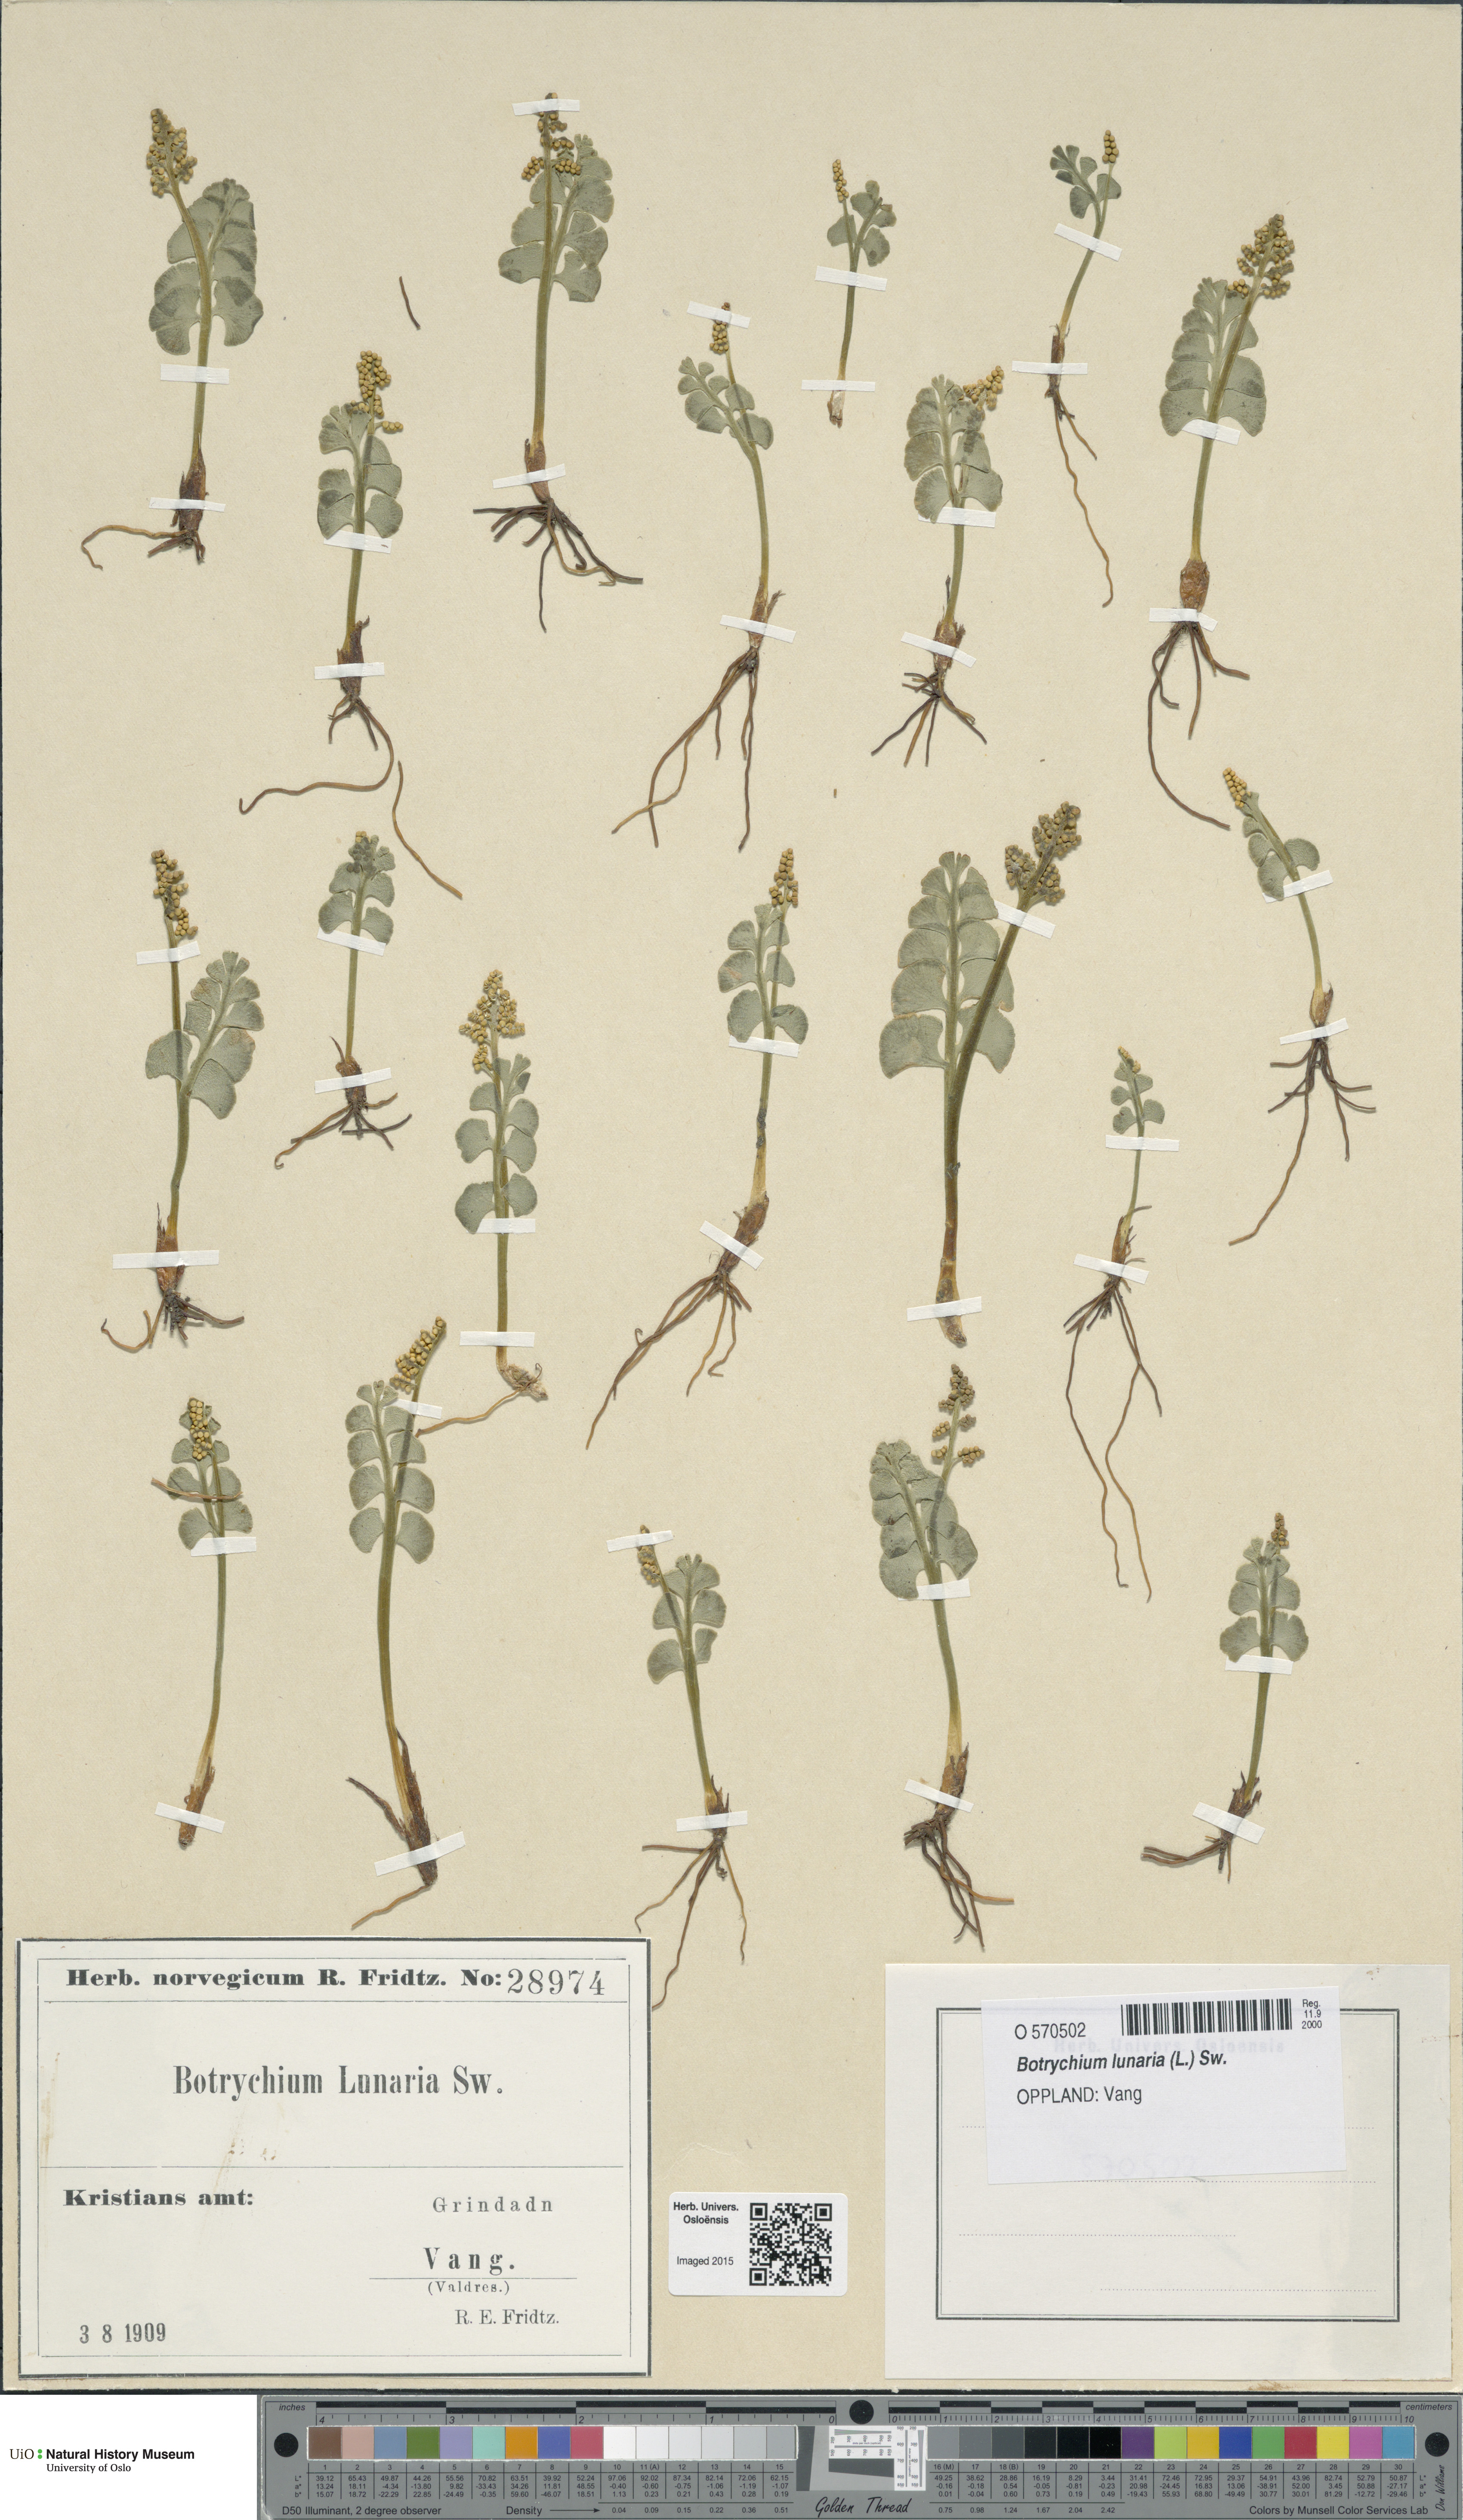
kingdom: Plantae
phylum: Tracheophyta
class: Polypodiopsida
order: Ophioglossales
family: Ophioglossaceae
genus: Botrychium
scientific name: Botrychium lunaria
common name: Moonwort
